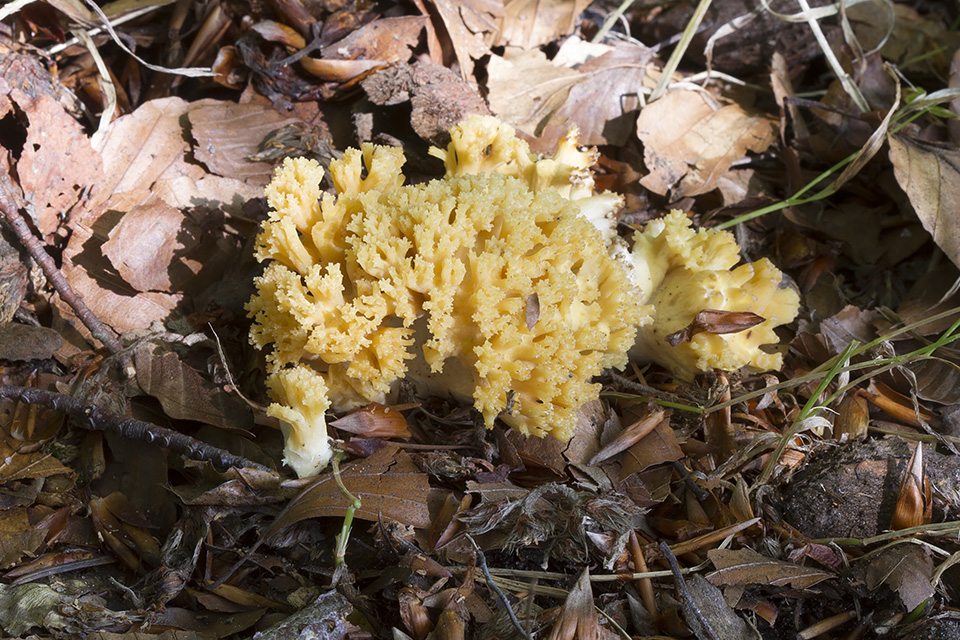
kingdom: Fungi
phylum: Basidiomycota
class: Agaricomycetes
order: Gomphales
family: Gomphaceae
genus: Ramaria
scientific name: Ramaria
